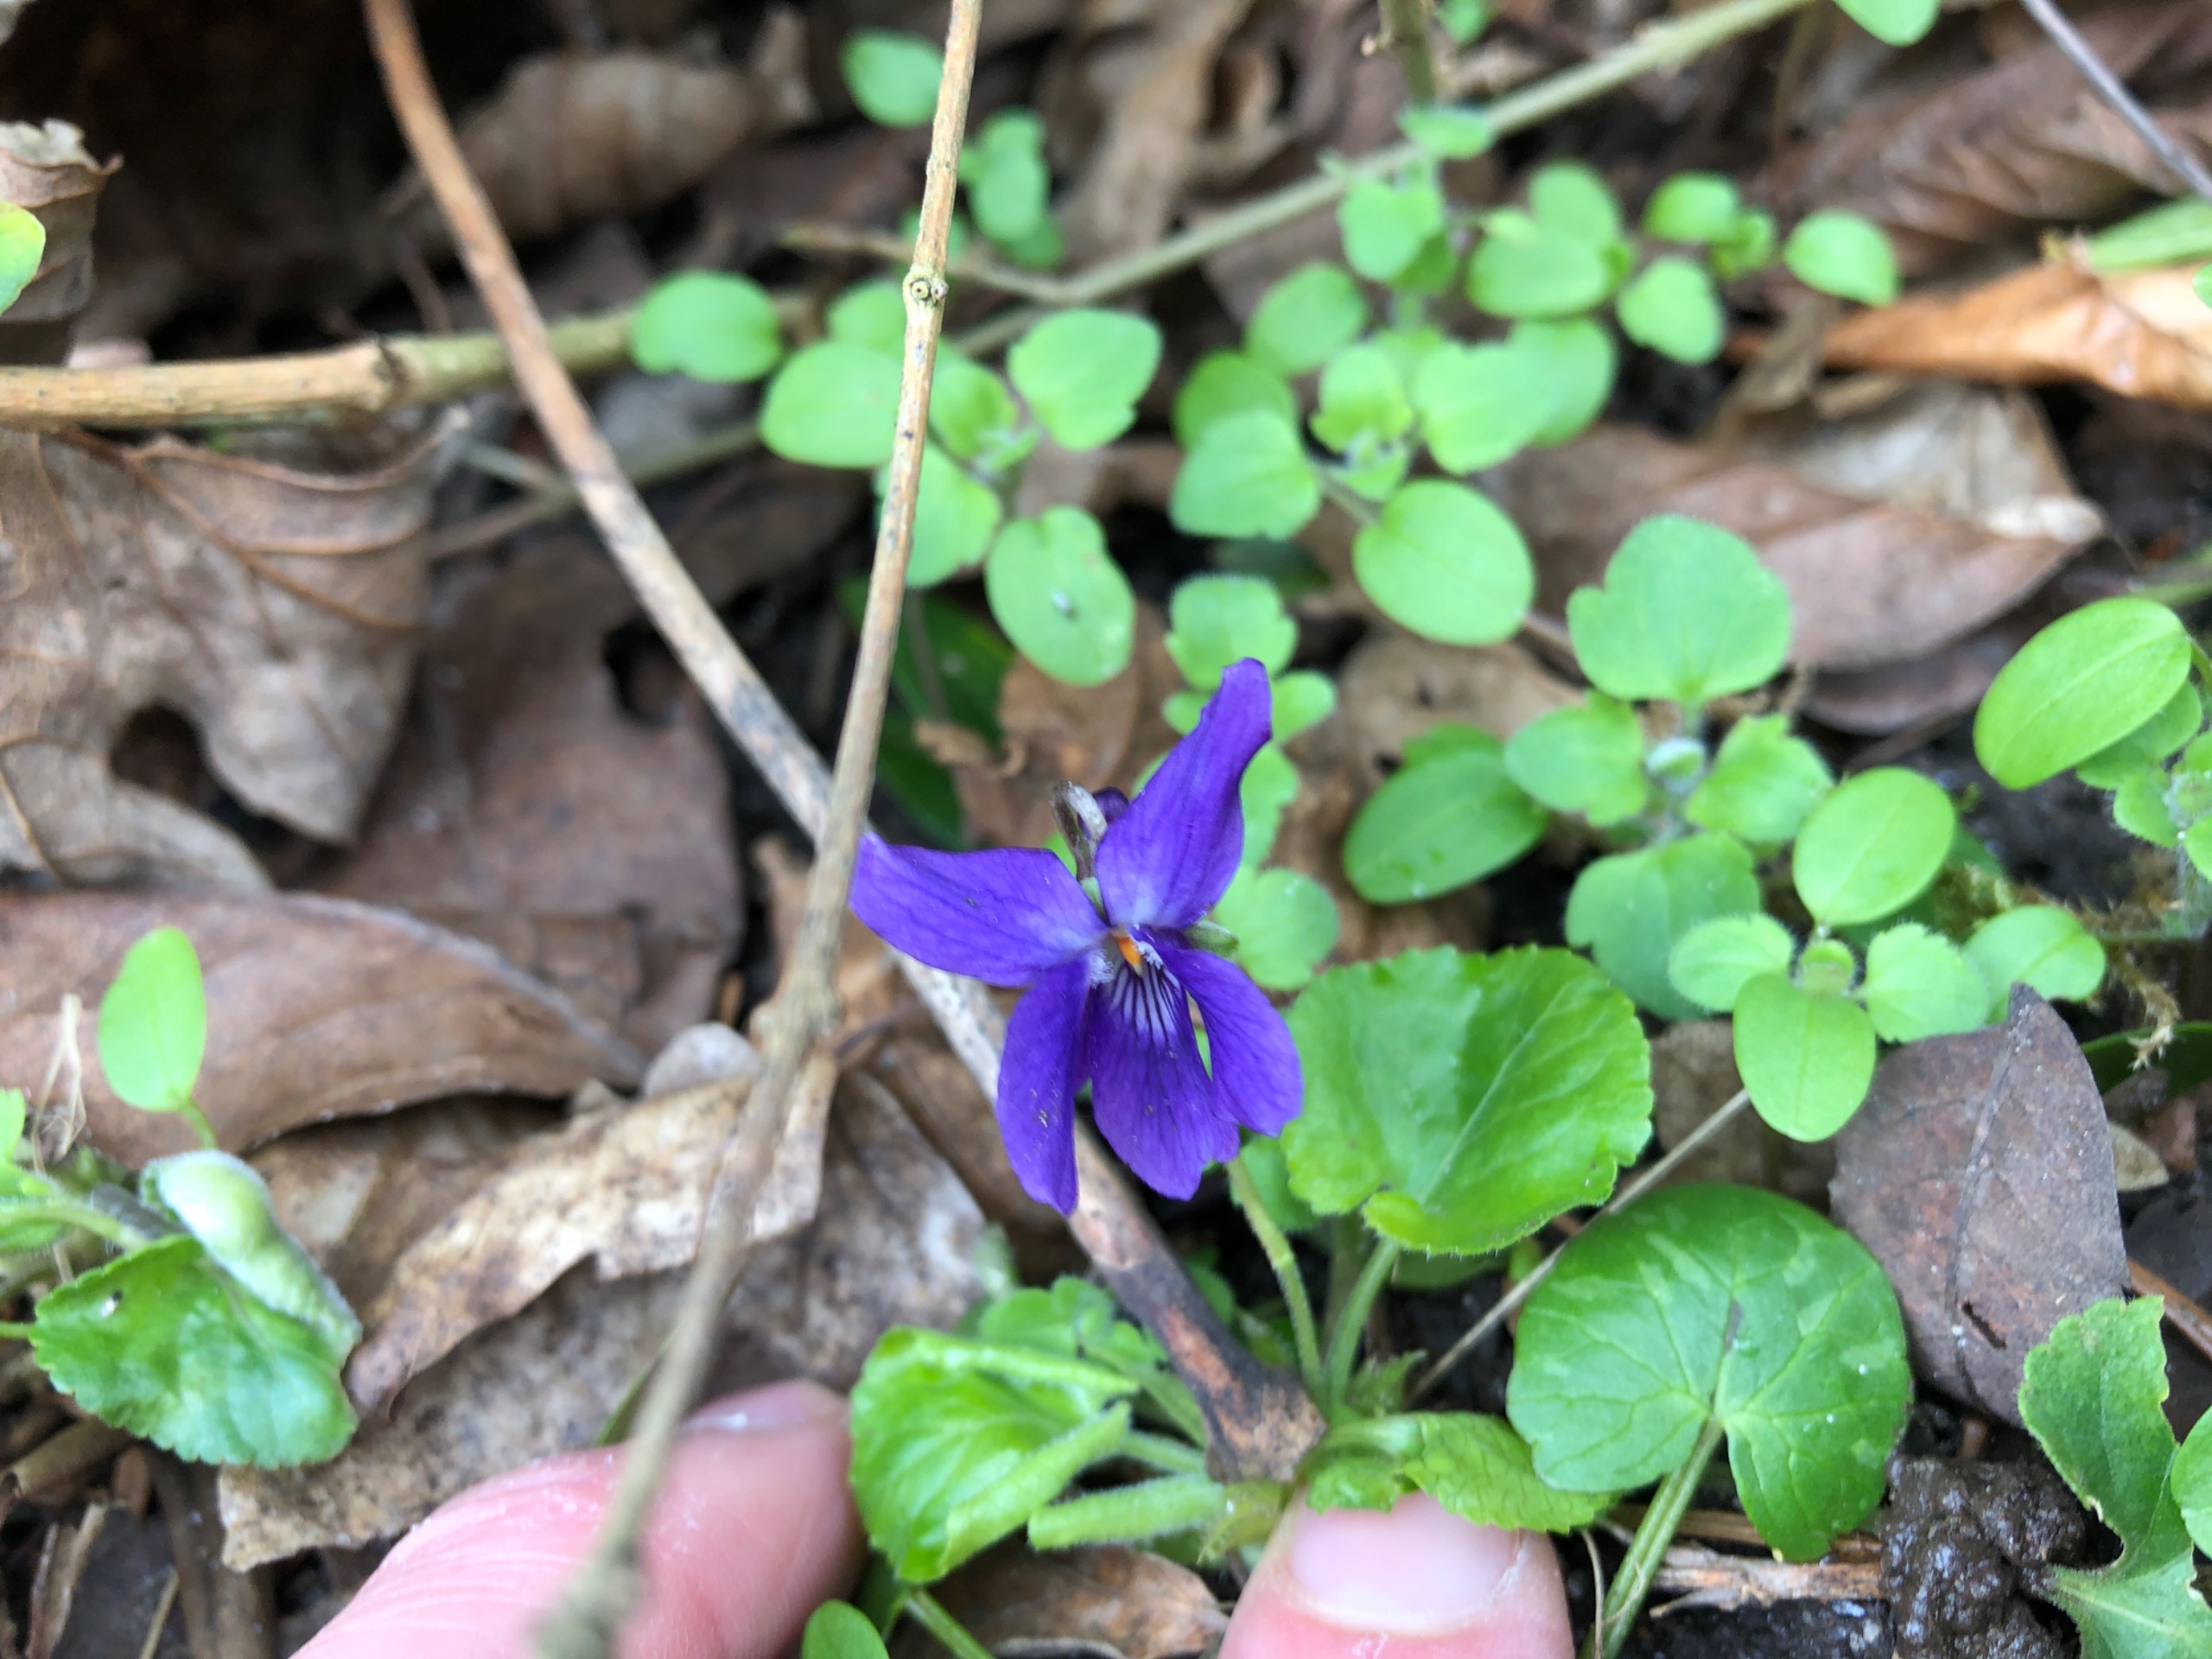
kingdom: Plantae
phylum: Tracheophyta
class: Magnoliopsida
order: Malpighiales
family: Violaceae
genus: Viola
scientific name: Viola odorata
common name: Marts-viol
